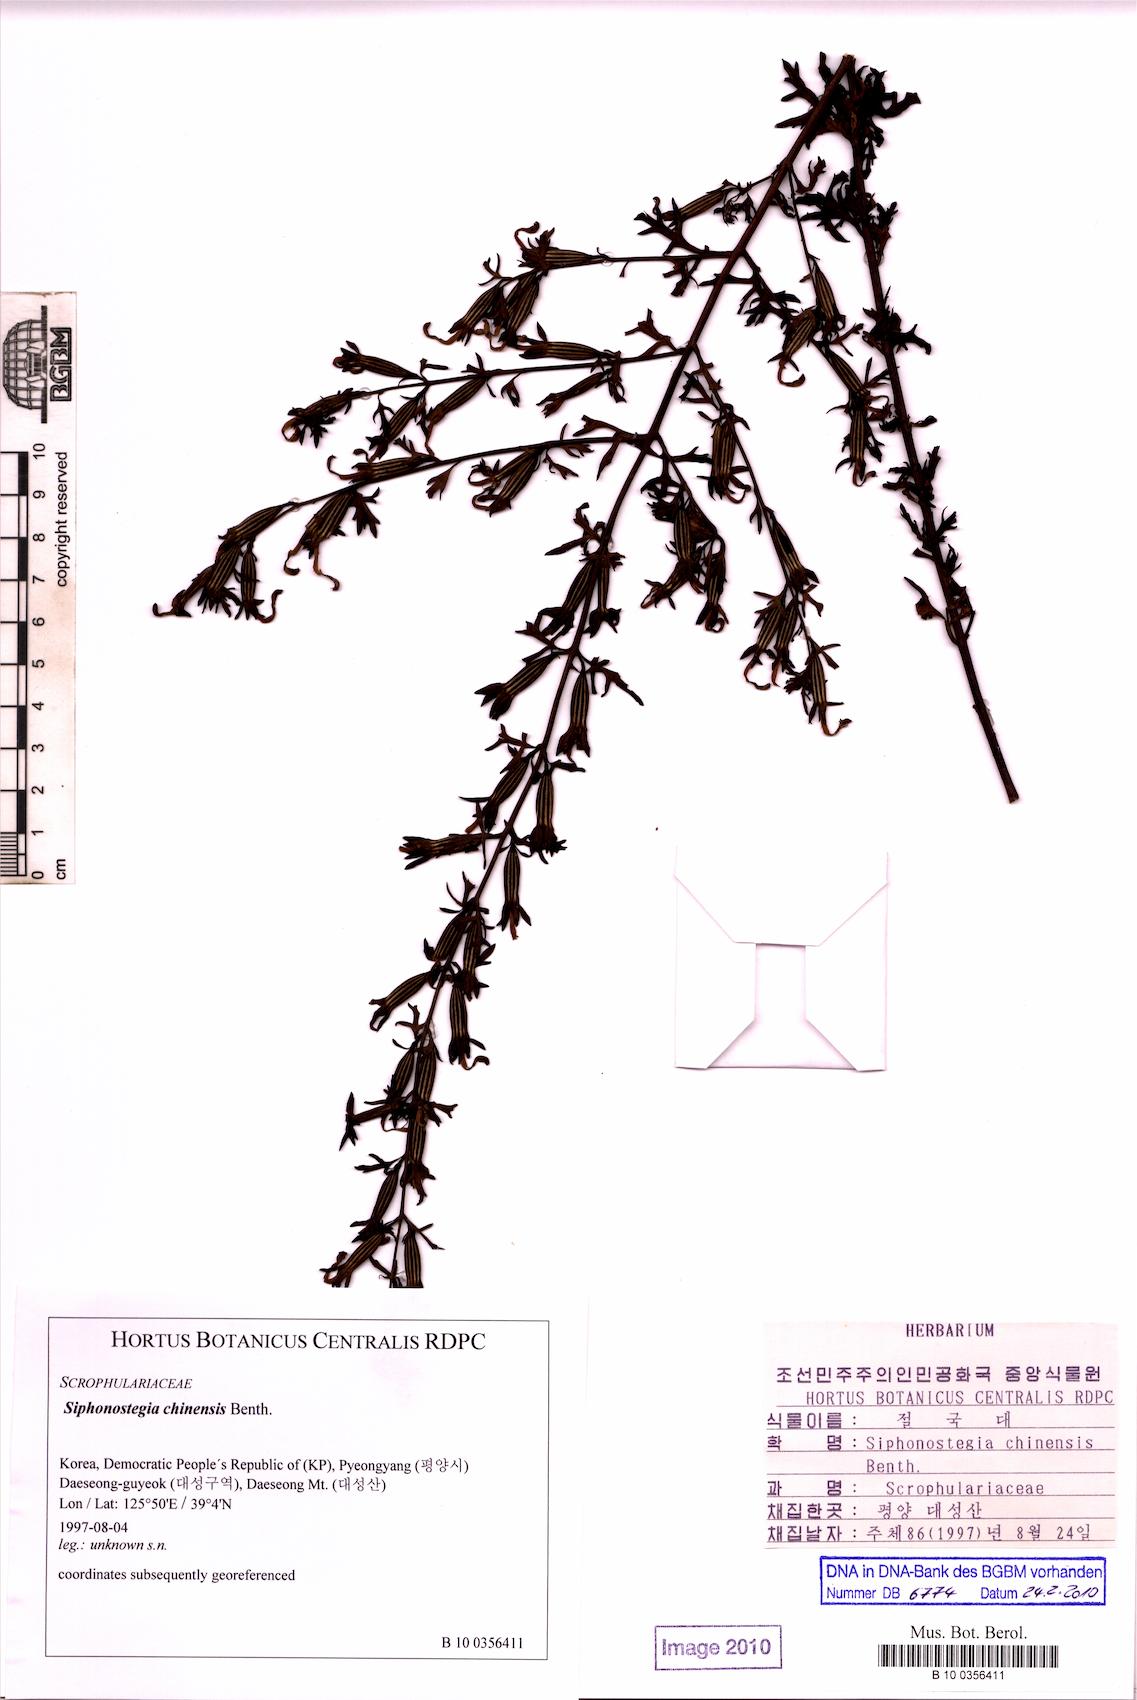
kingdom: Plantae
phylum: Tracheophyta
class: Magnoliopsida
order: Lamiales
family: Orobanchaceae
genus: Siphonostegia
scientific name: Siphonostegia chinensis
